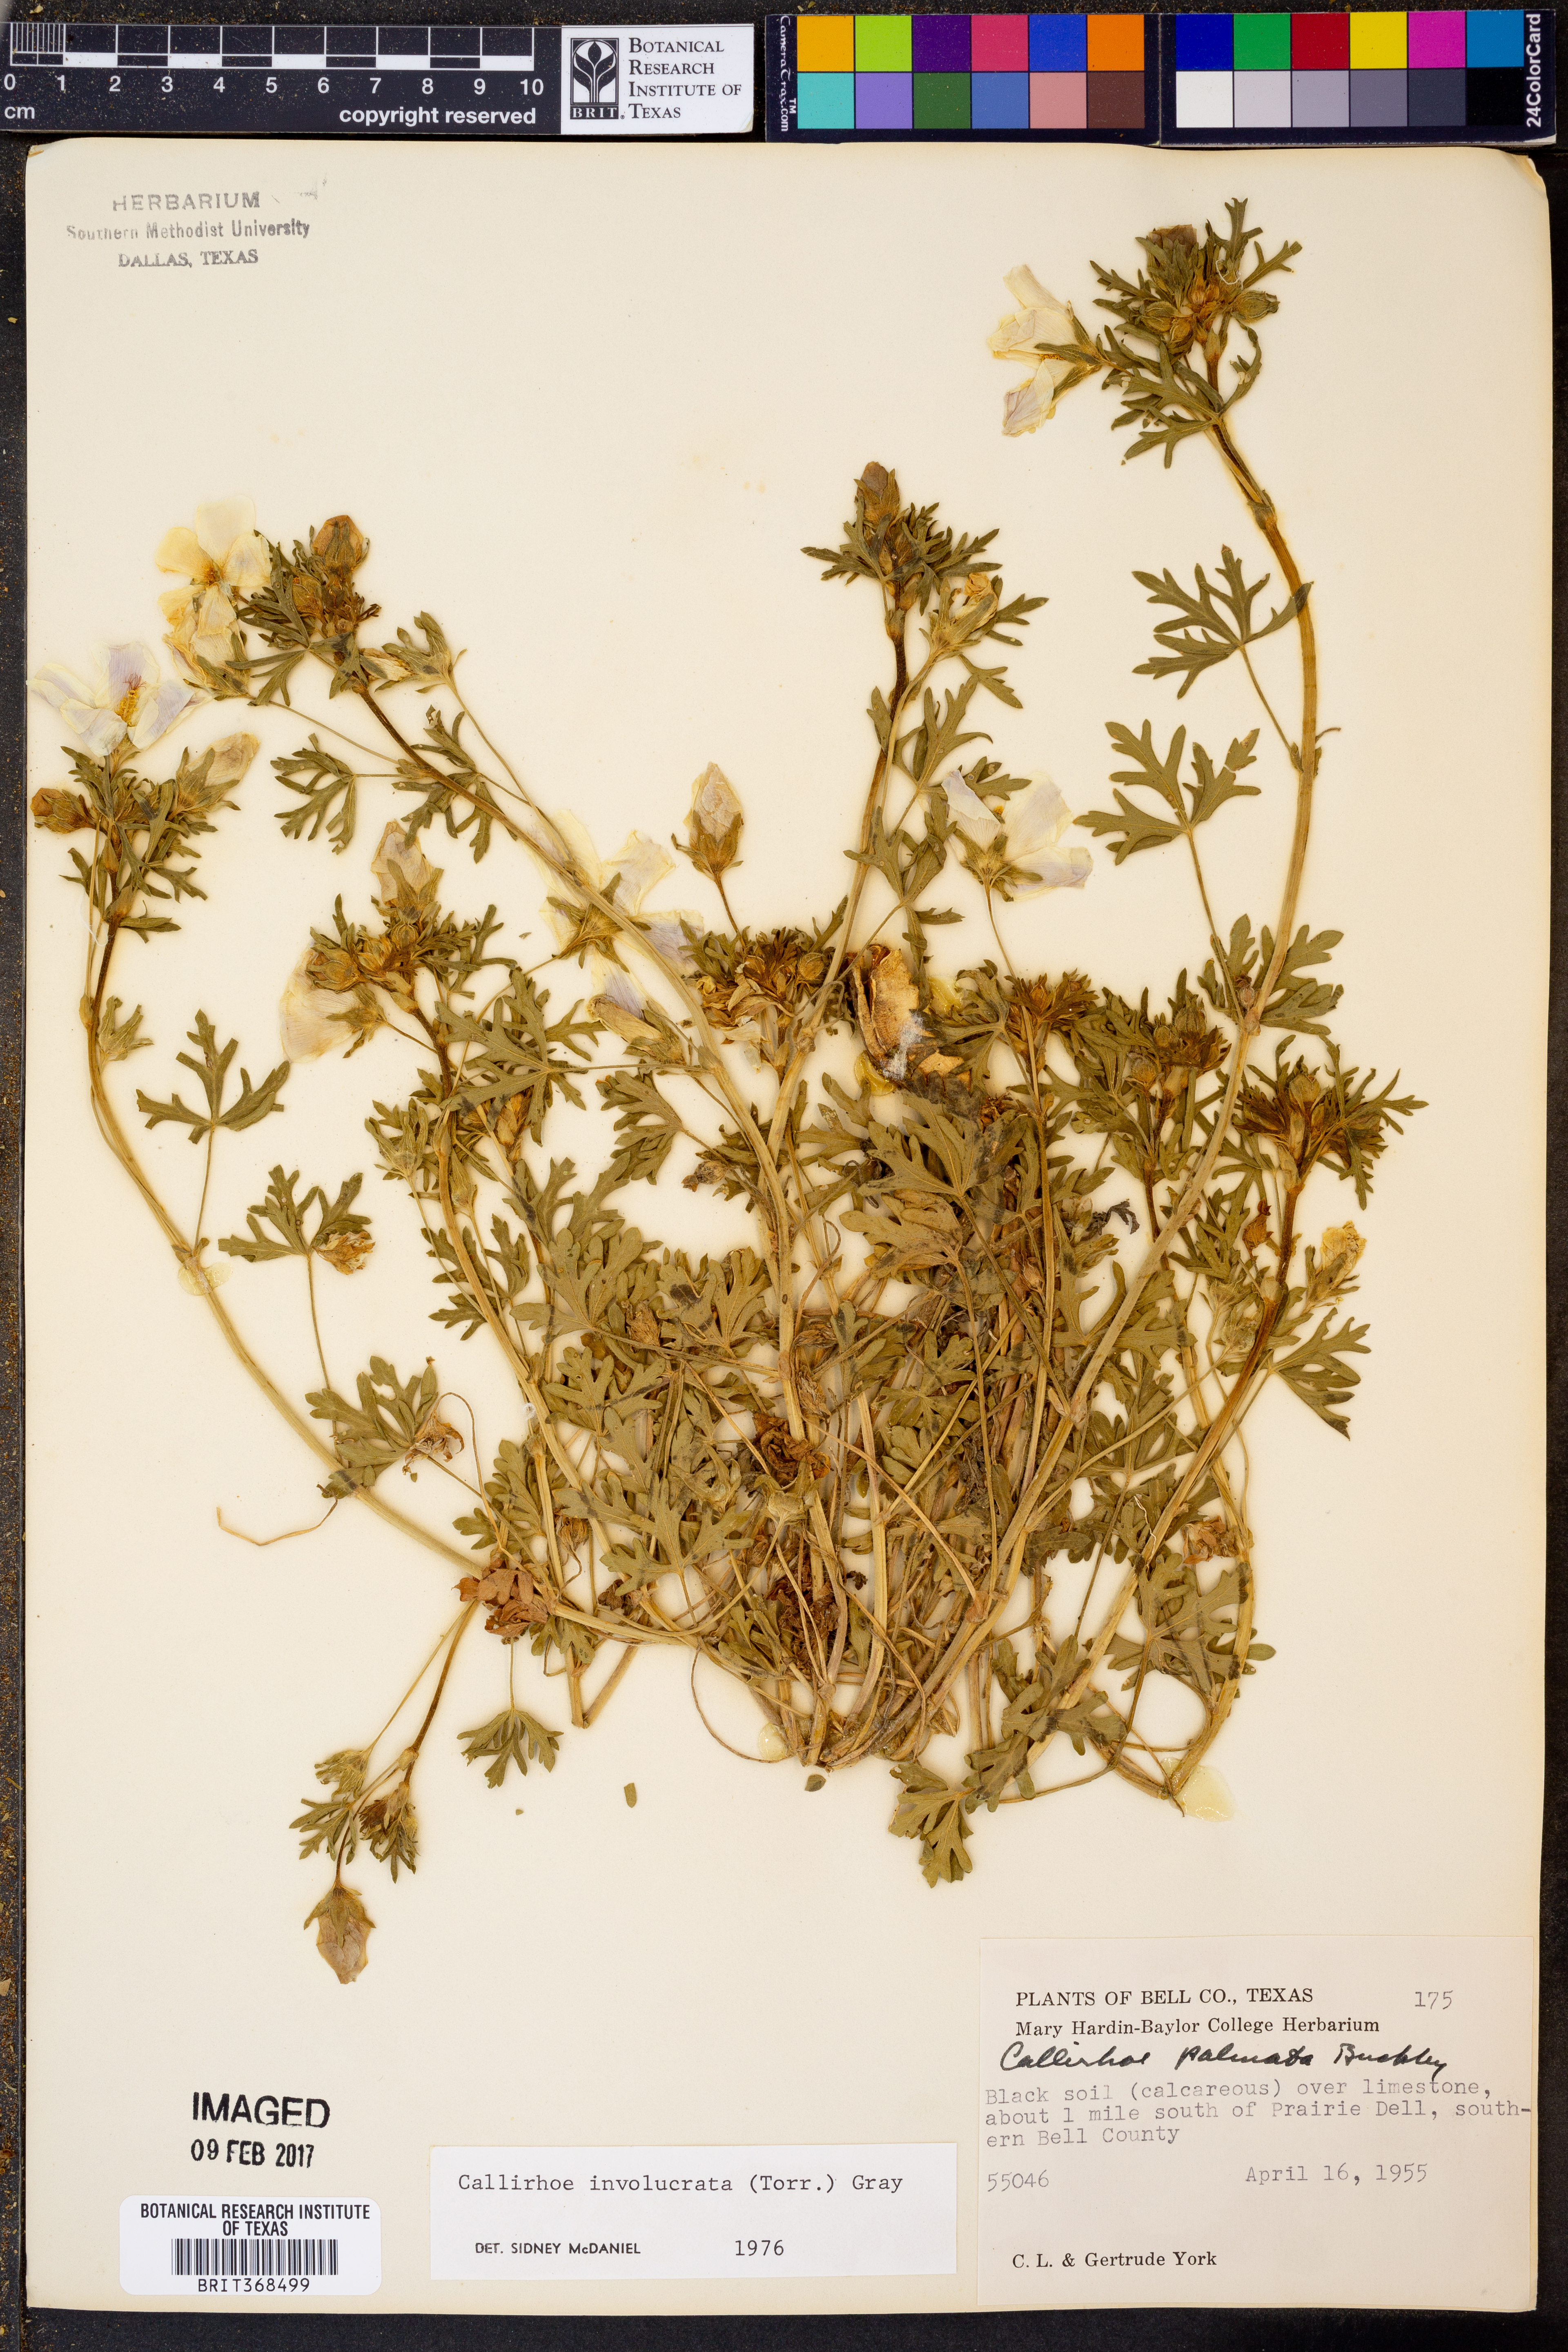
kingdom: Plantae
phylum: Tracheophyta
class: Magnoliopsida
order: Malvales
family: Malvaceae
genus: Callirhoe
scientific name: Callirhoe involucrata
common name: Purple poppy-mallow
